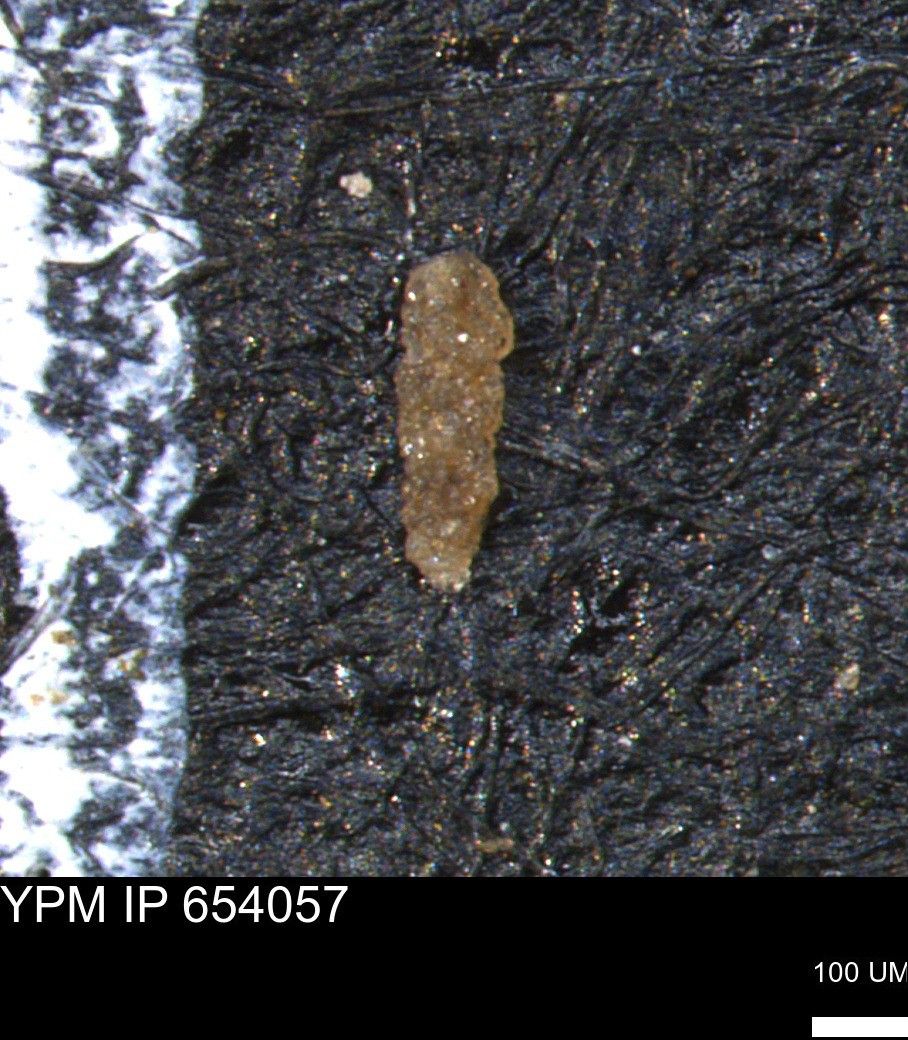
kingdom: Chromista
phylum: Foraminifera
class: Globothalamea
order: Loftusiida
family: Ataxophragmiidae
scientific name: Ataxophragmiidae
